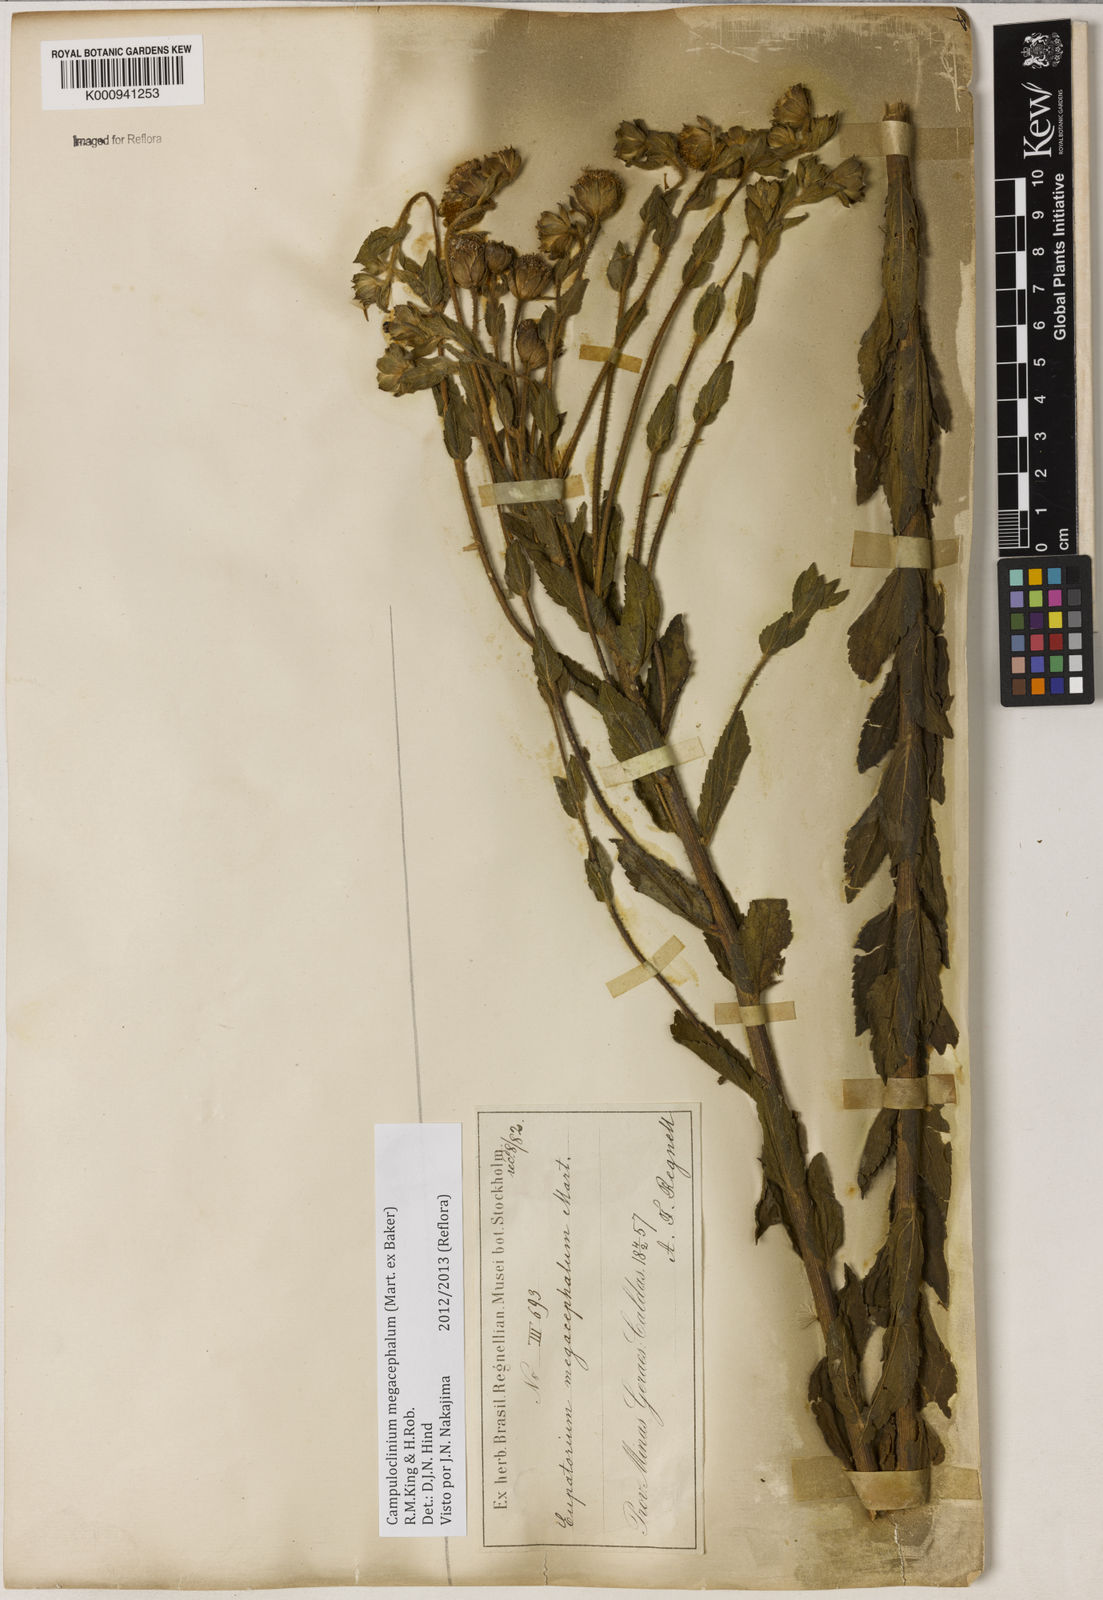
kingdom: Plantae
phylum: Tracheophyta
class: Magnoliopsida
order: Asterales
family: Asteraceae
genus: Campuloclinium
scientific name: Campuloclinium megacephalum
